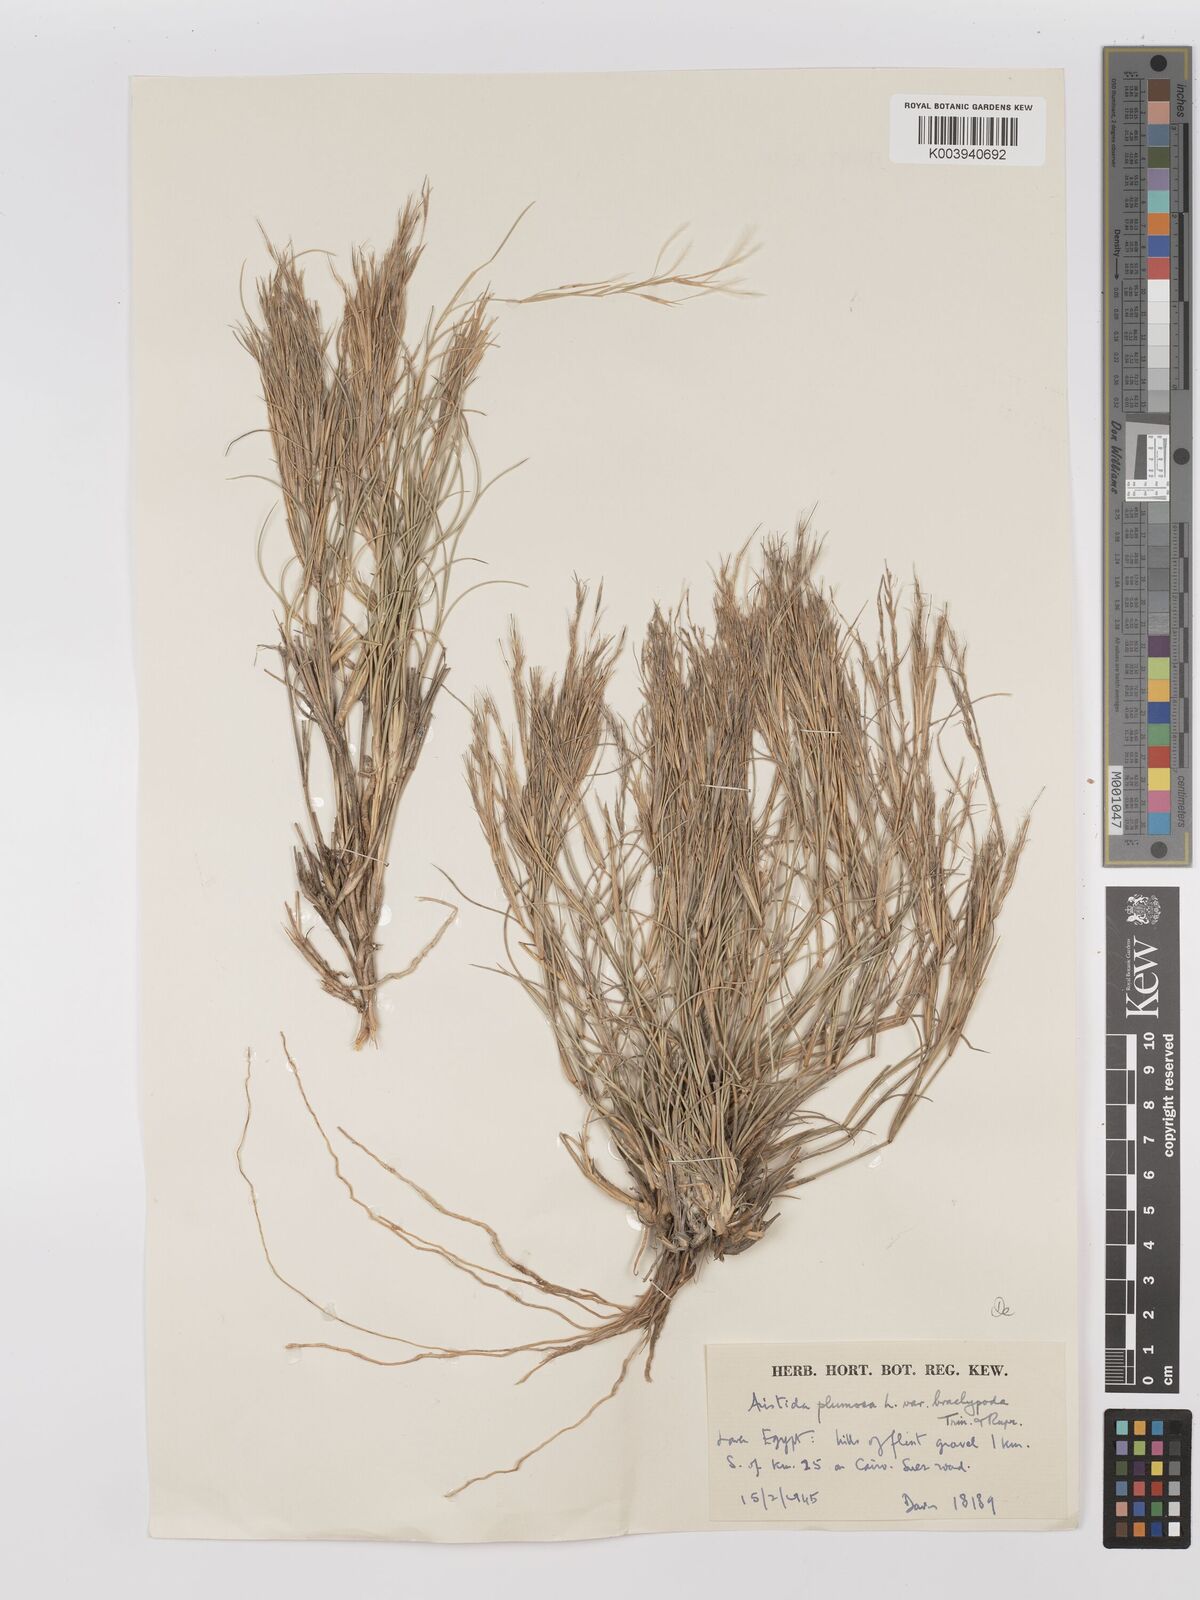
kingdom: Plantae
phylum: Tracheophyta
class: Liliopsida
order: Poales
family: Poaceae
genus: Stipagrostis
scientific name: Stipagrostis plumosa
